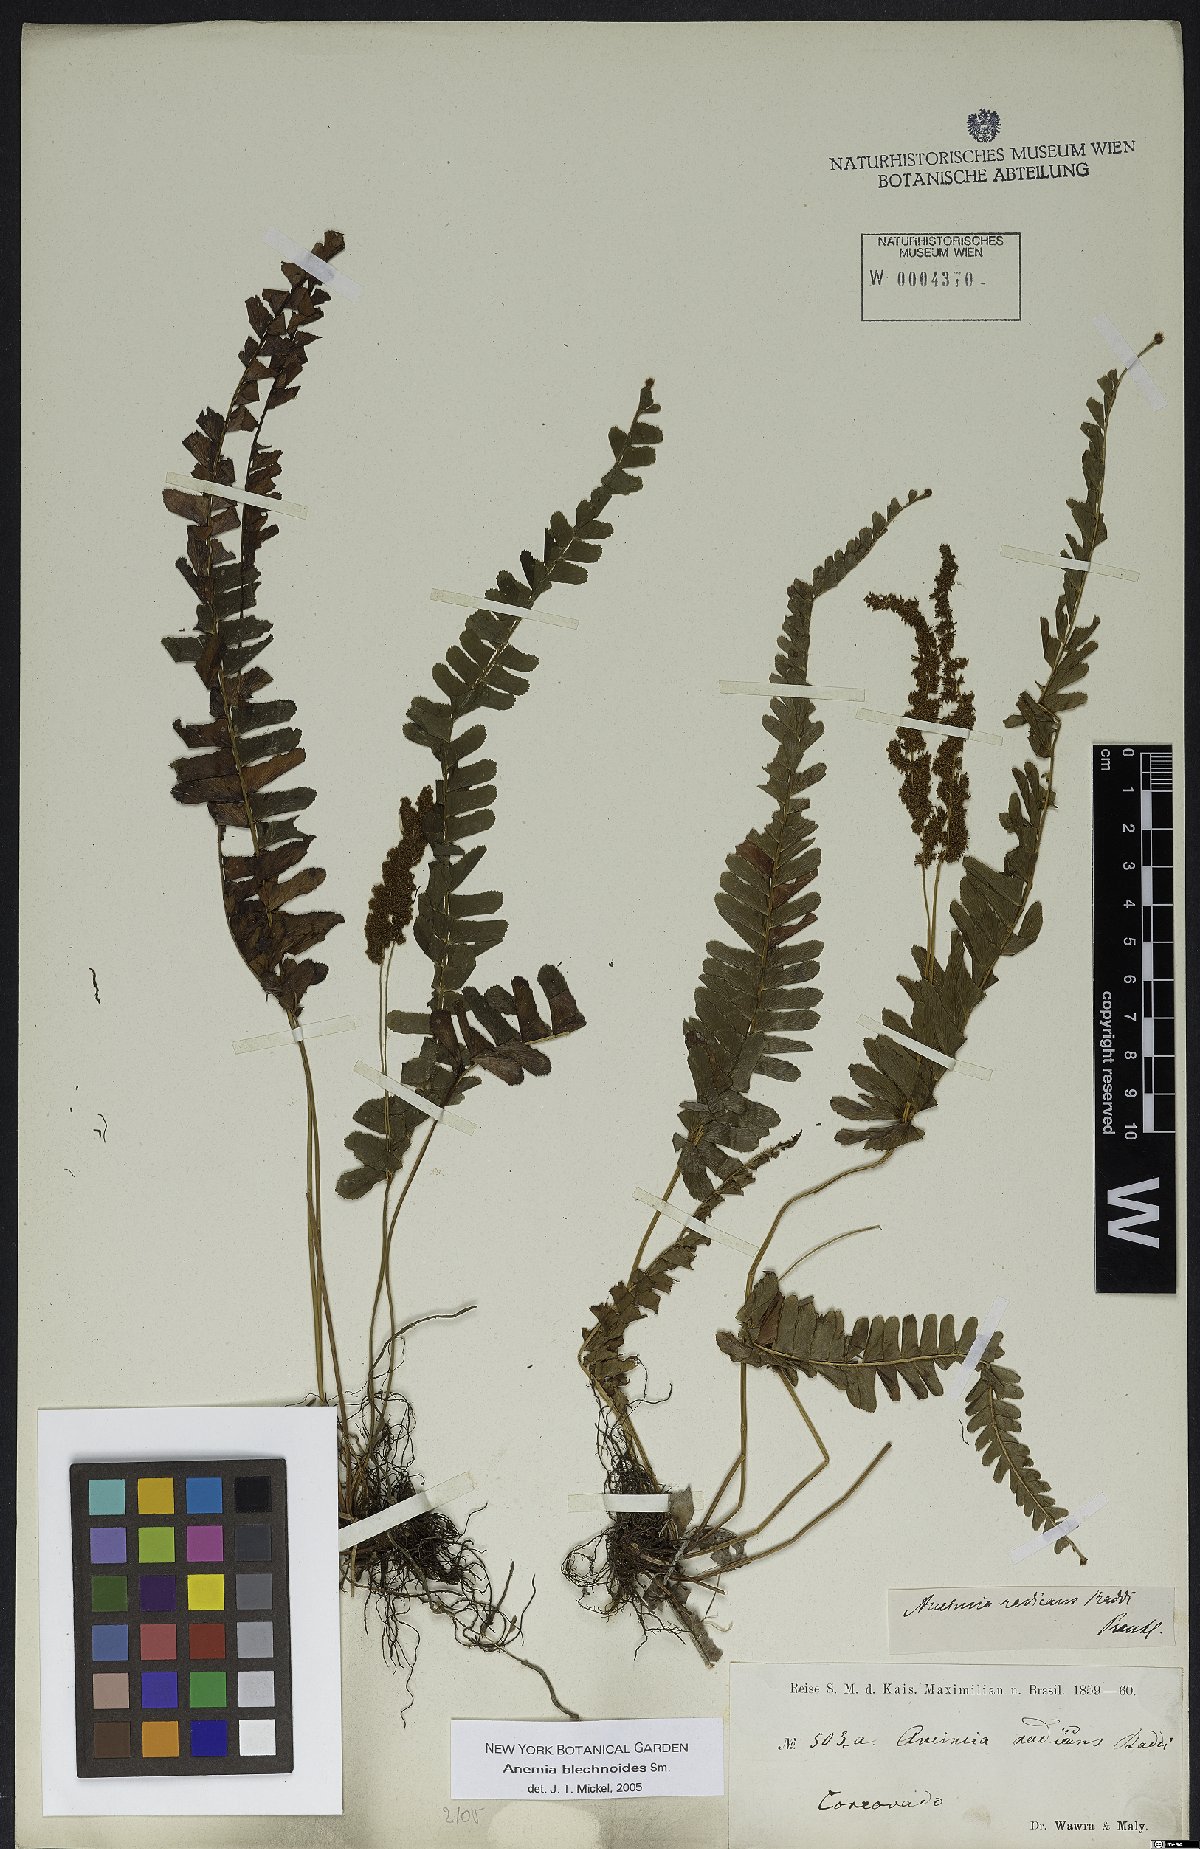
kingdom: Plantae
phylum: Tracheophyta
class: Polypodiopsida
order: Schizaeales
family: Anemiaceae
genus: Anemia
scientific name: Anemia spicantoides
